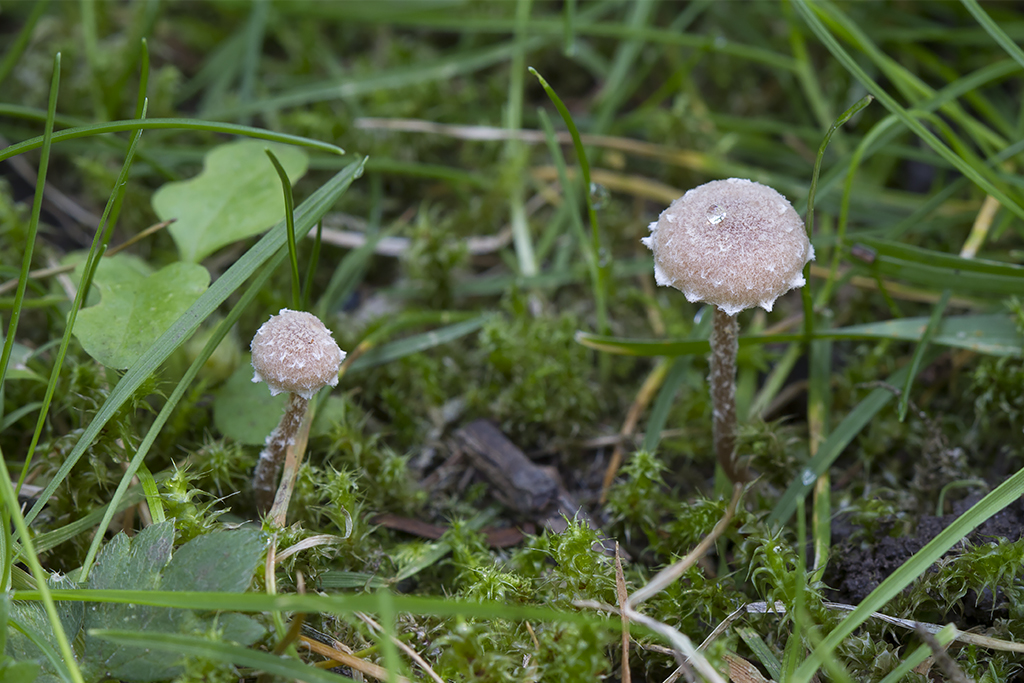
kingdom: Fungi
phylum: Basidiomycota
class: Agaricomycetes
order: Agaricales
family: Tubariaceae
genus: Tubaria
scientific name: Tubaria conspersa
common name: bleg fnughat
